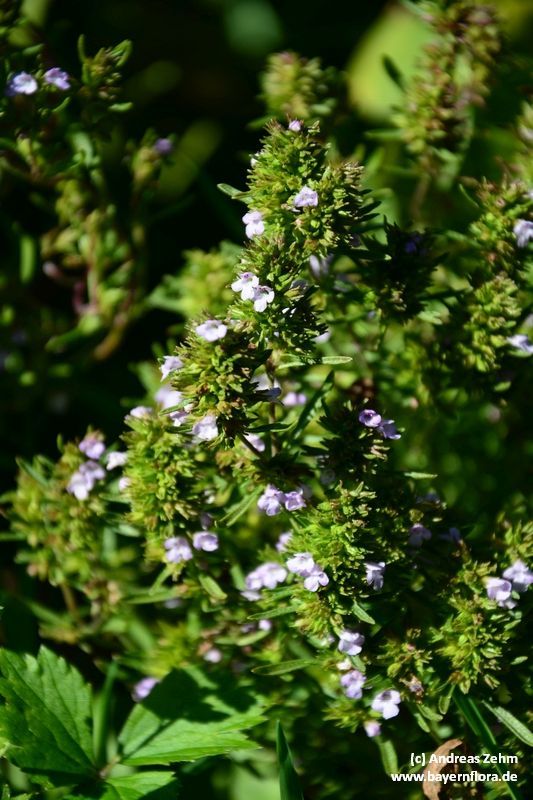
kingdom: Plantae
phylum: Tracheophyta
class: Magnoliopsida
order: Lamiales
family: Lamiaceae
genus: Satureja
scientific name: Satureja montana
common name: Winter savory
